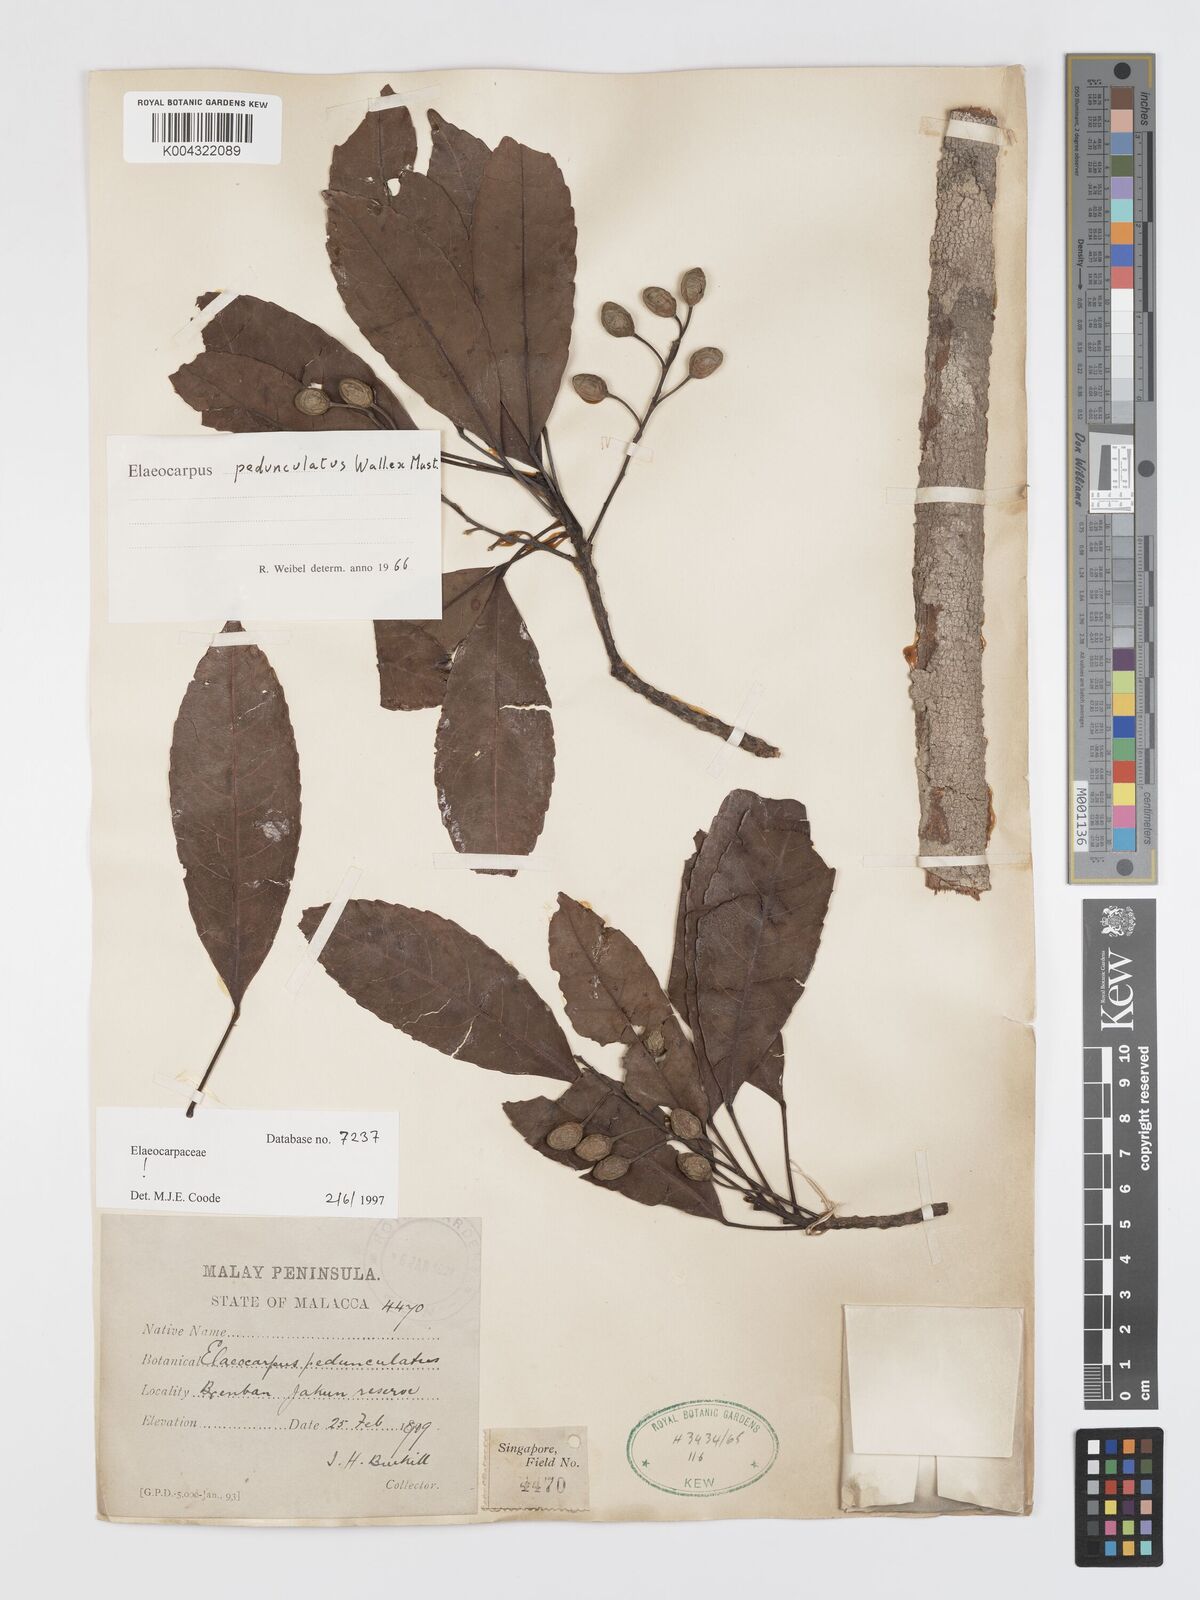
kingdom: Plantae
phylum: Tracheophyta
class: Magnoliopsida
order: Oxalidales
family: Elaeocarpaceae
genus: Elaeocarpus
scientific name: Elaeocarpus pedunculatus
